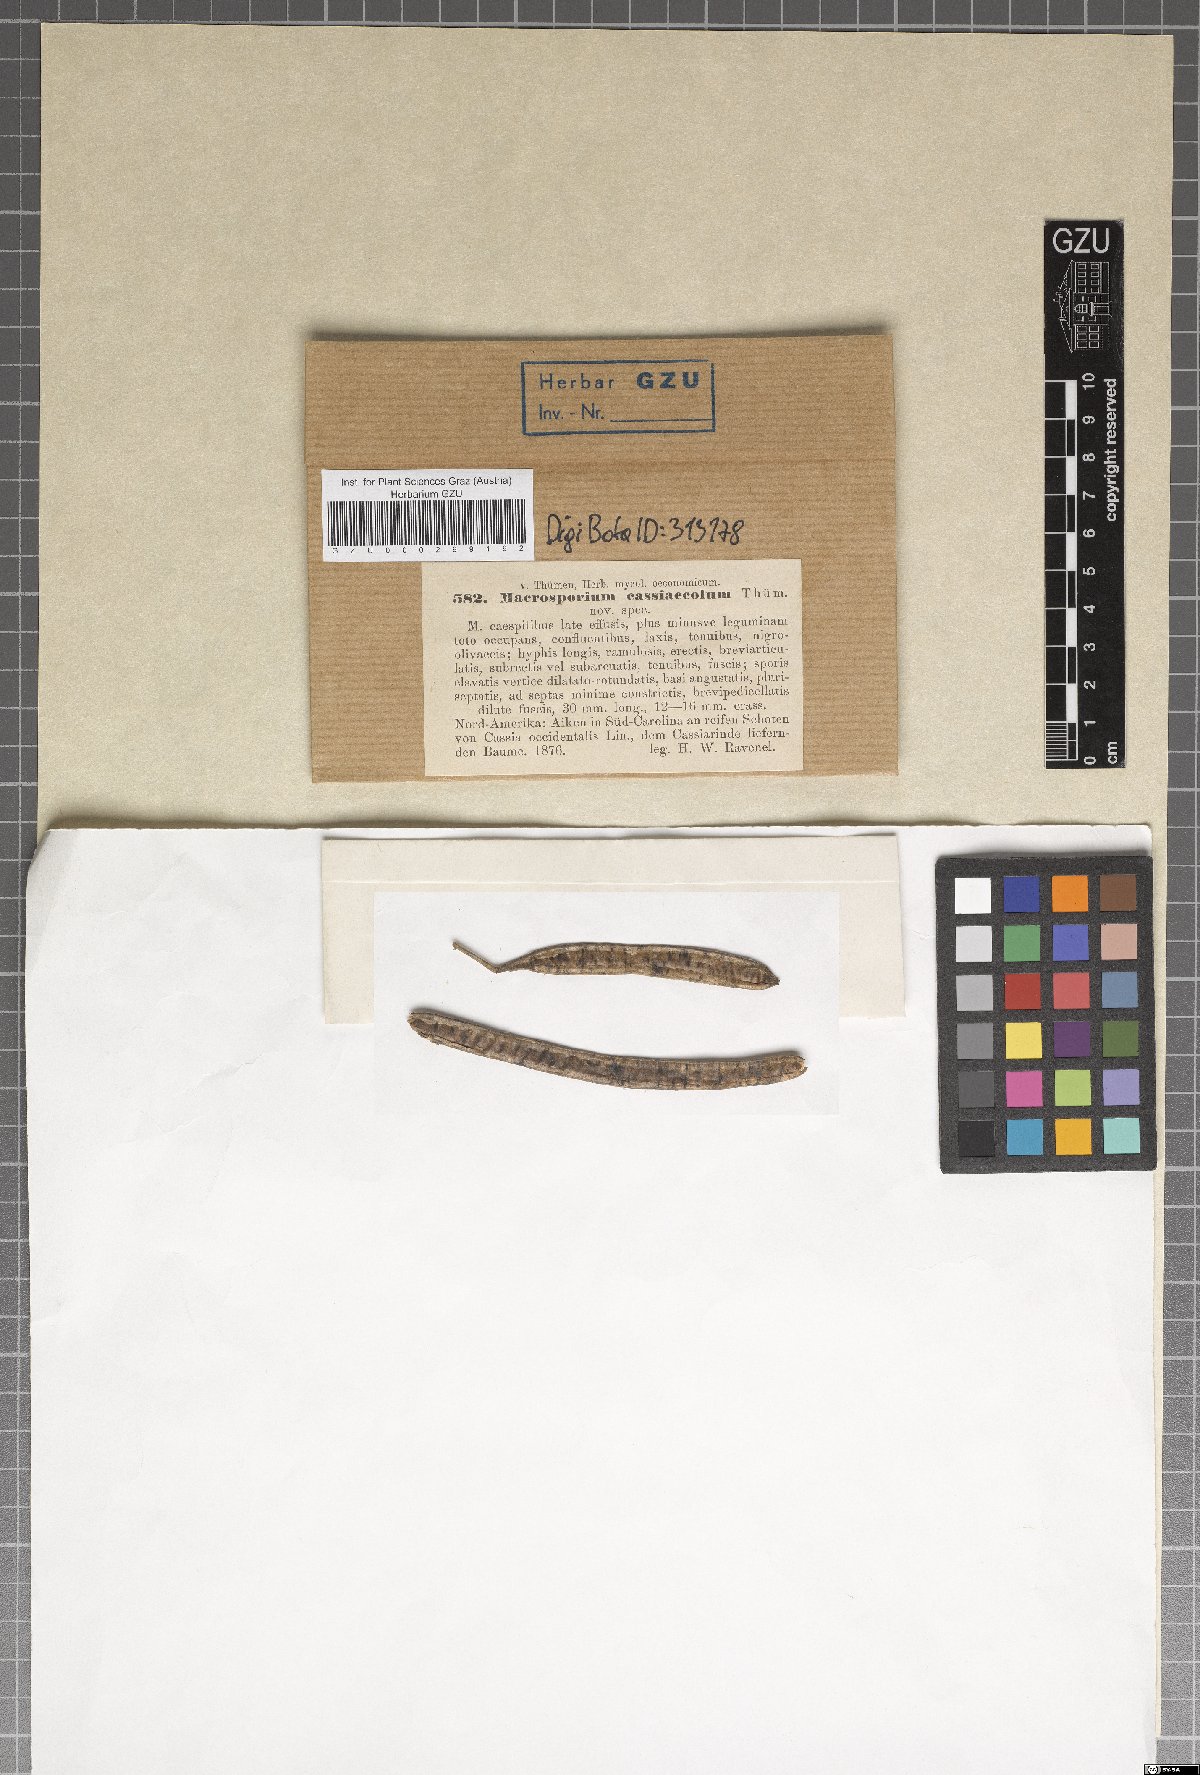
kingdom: Fungi
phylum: Ascomycota
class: Dothideomycetes
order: Pleosporales
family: Pleosporaceae
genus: Macrosporium
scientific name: Macrosporium
